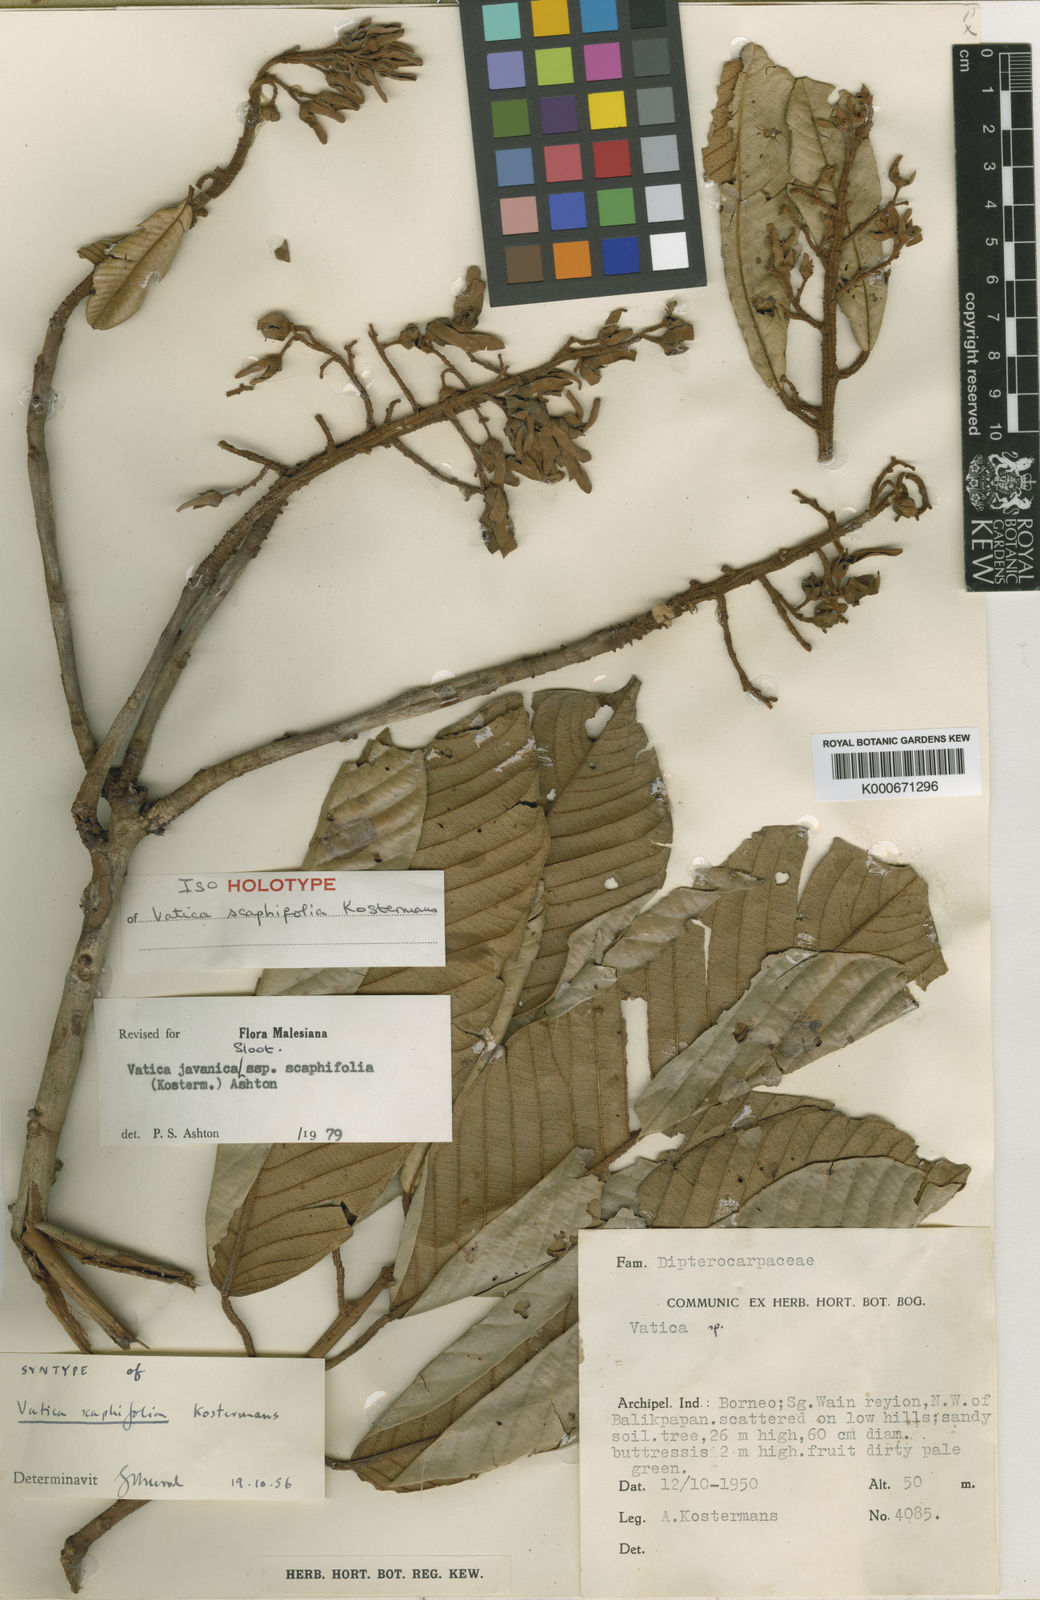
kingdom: Plantae
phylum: Tracheophyta
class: Magnoliopsida
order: Malvales
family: Dipterocarpaceae
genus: Vatica
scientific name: Vatica javanica
